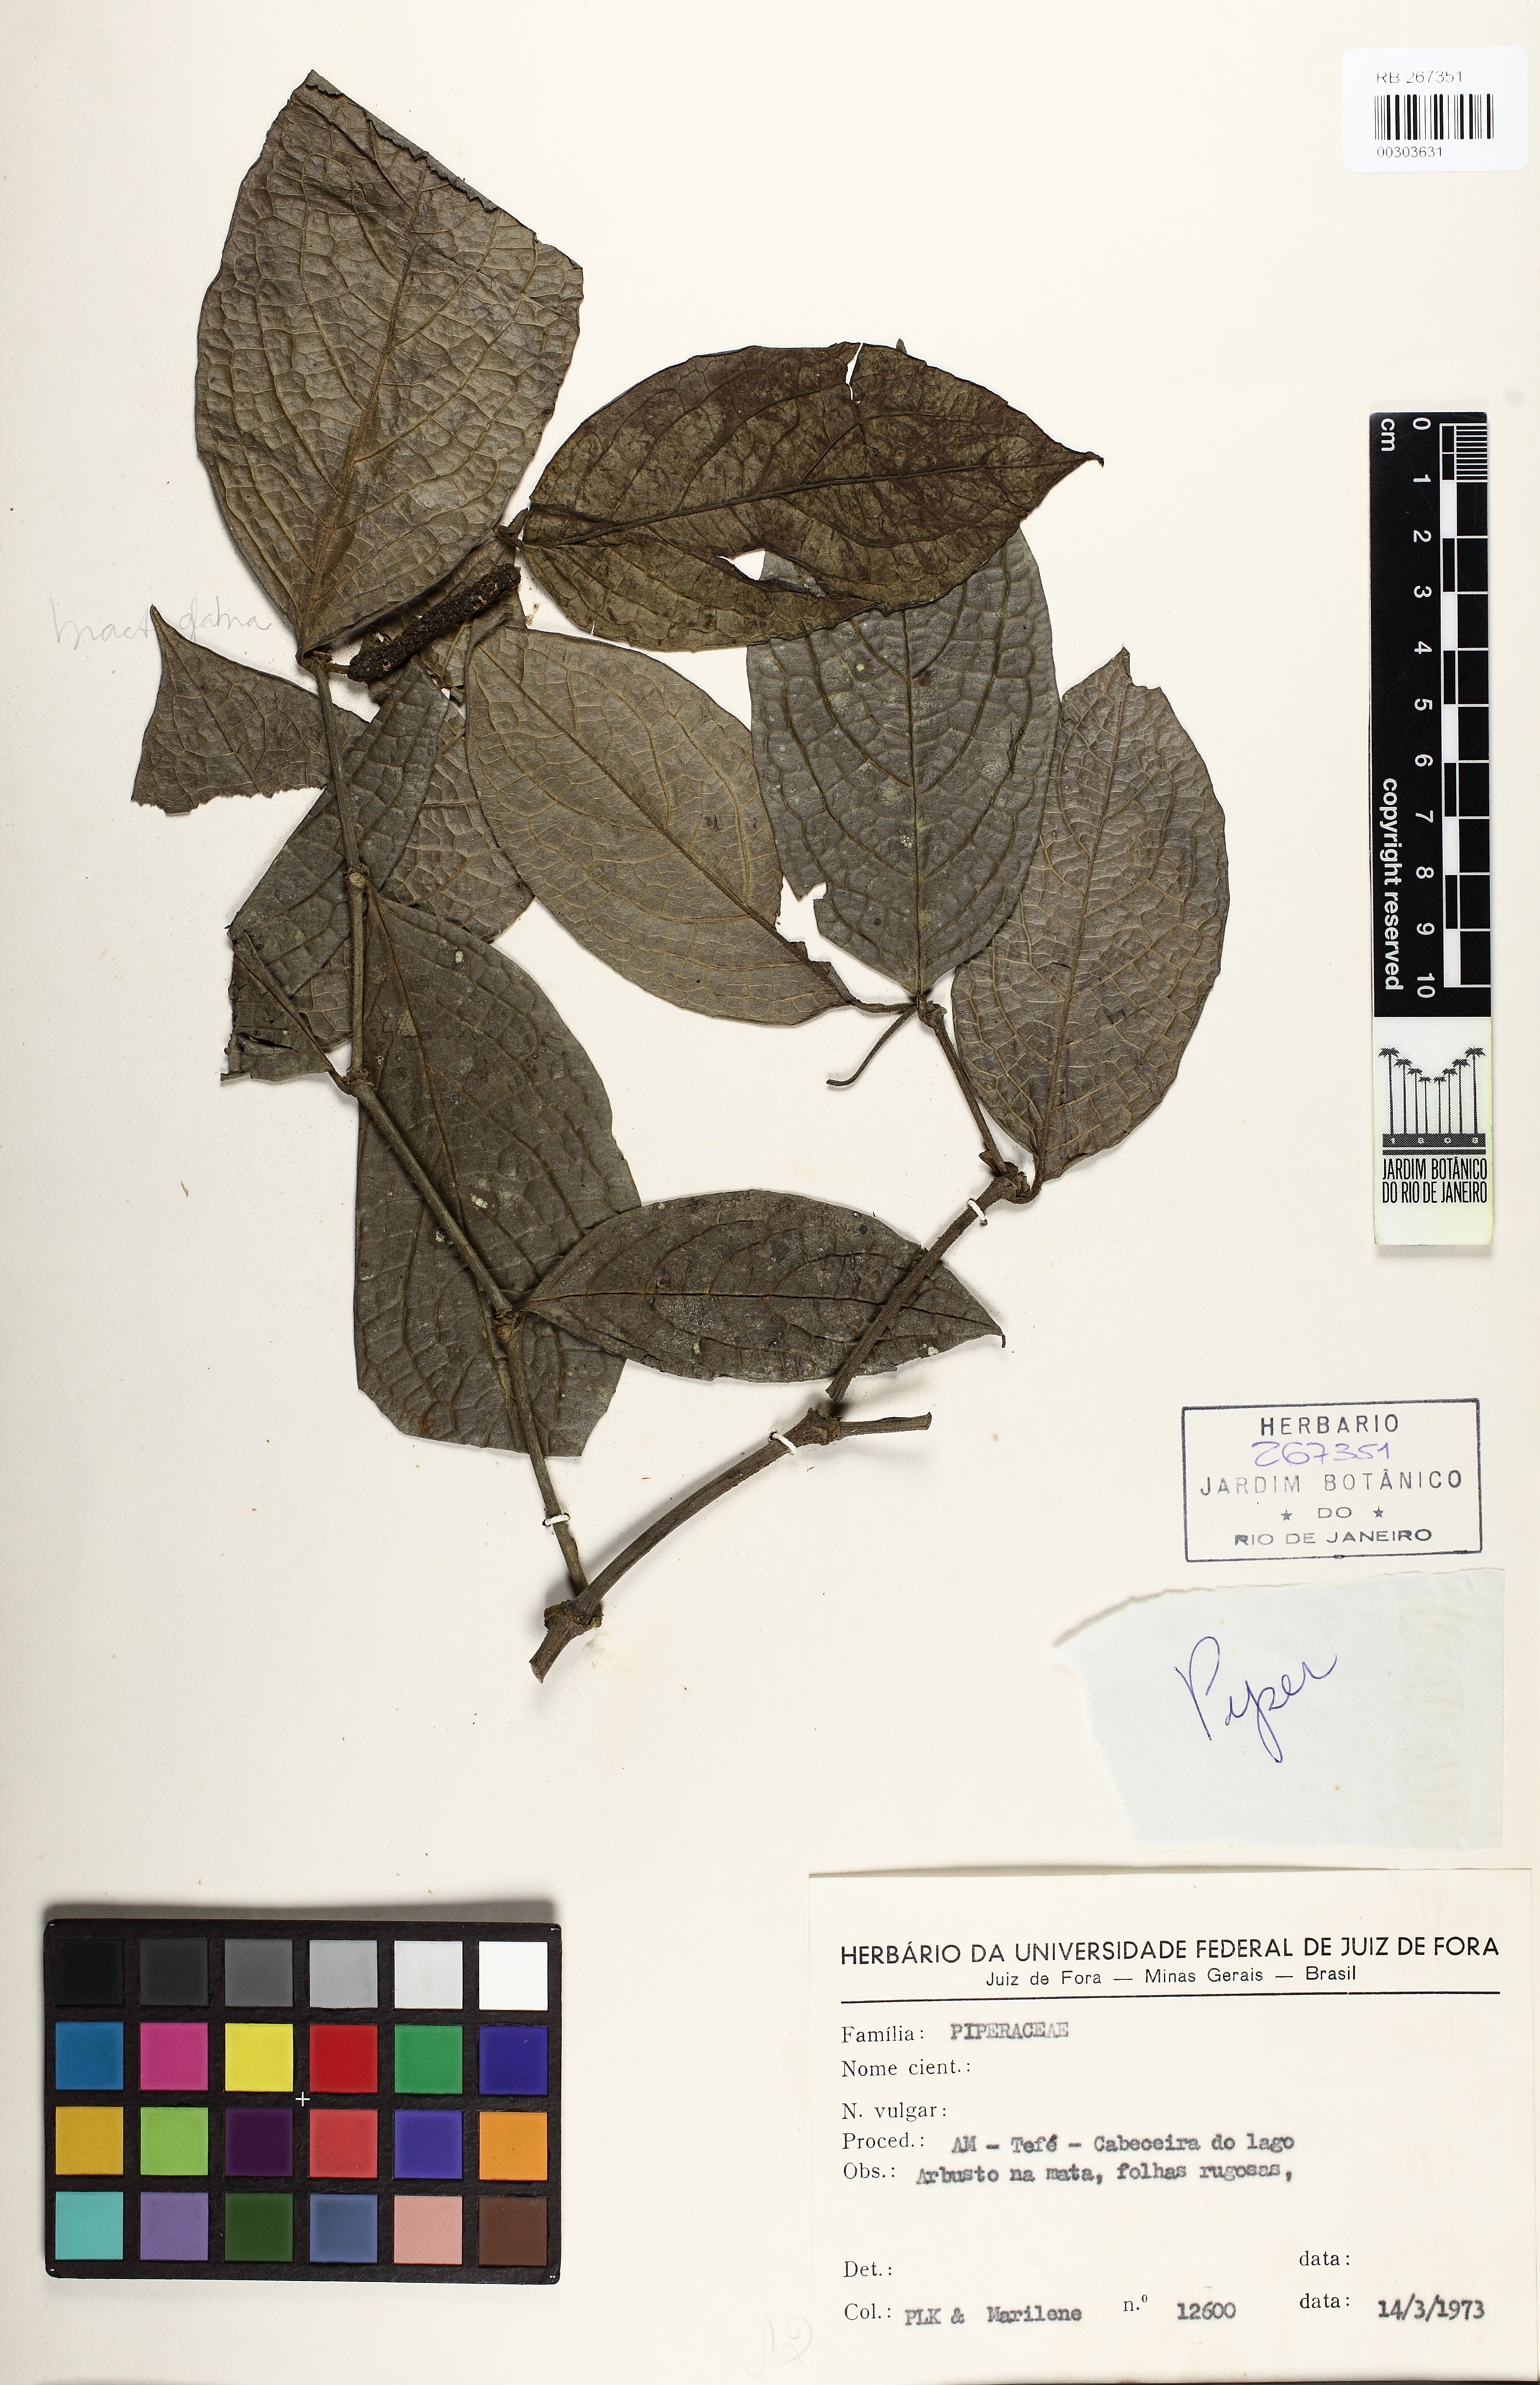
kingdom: Plantae
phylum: Tracheophyta
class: Magnoliopsida
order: Piperales
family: Piperaceae
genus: Piper
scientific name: Piper
